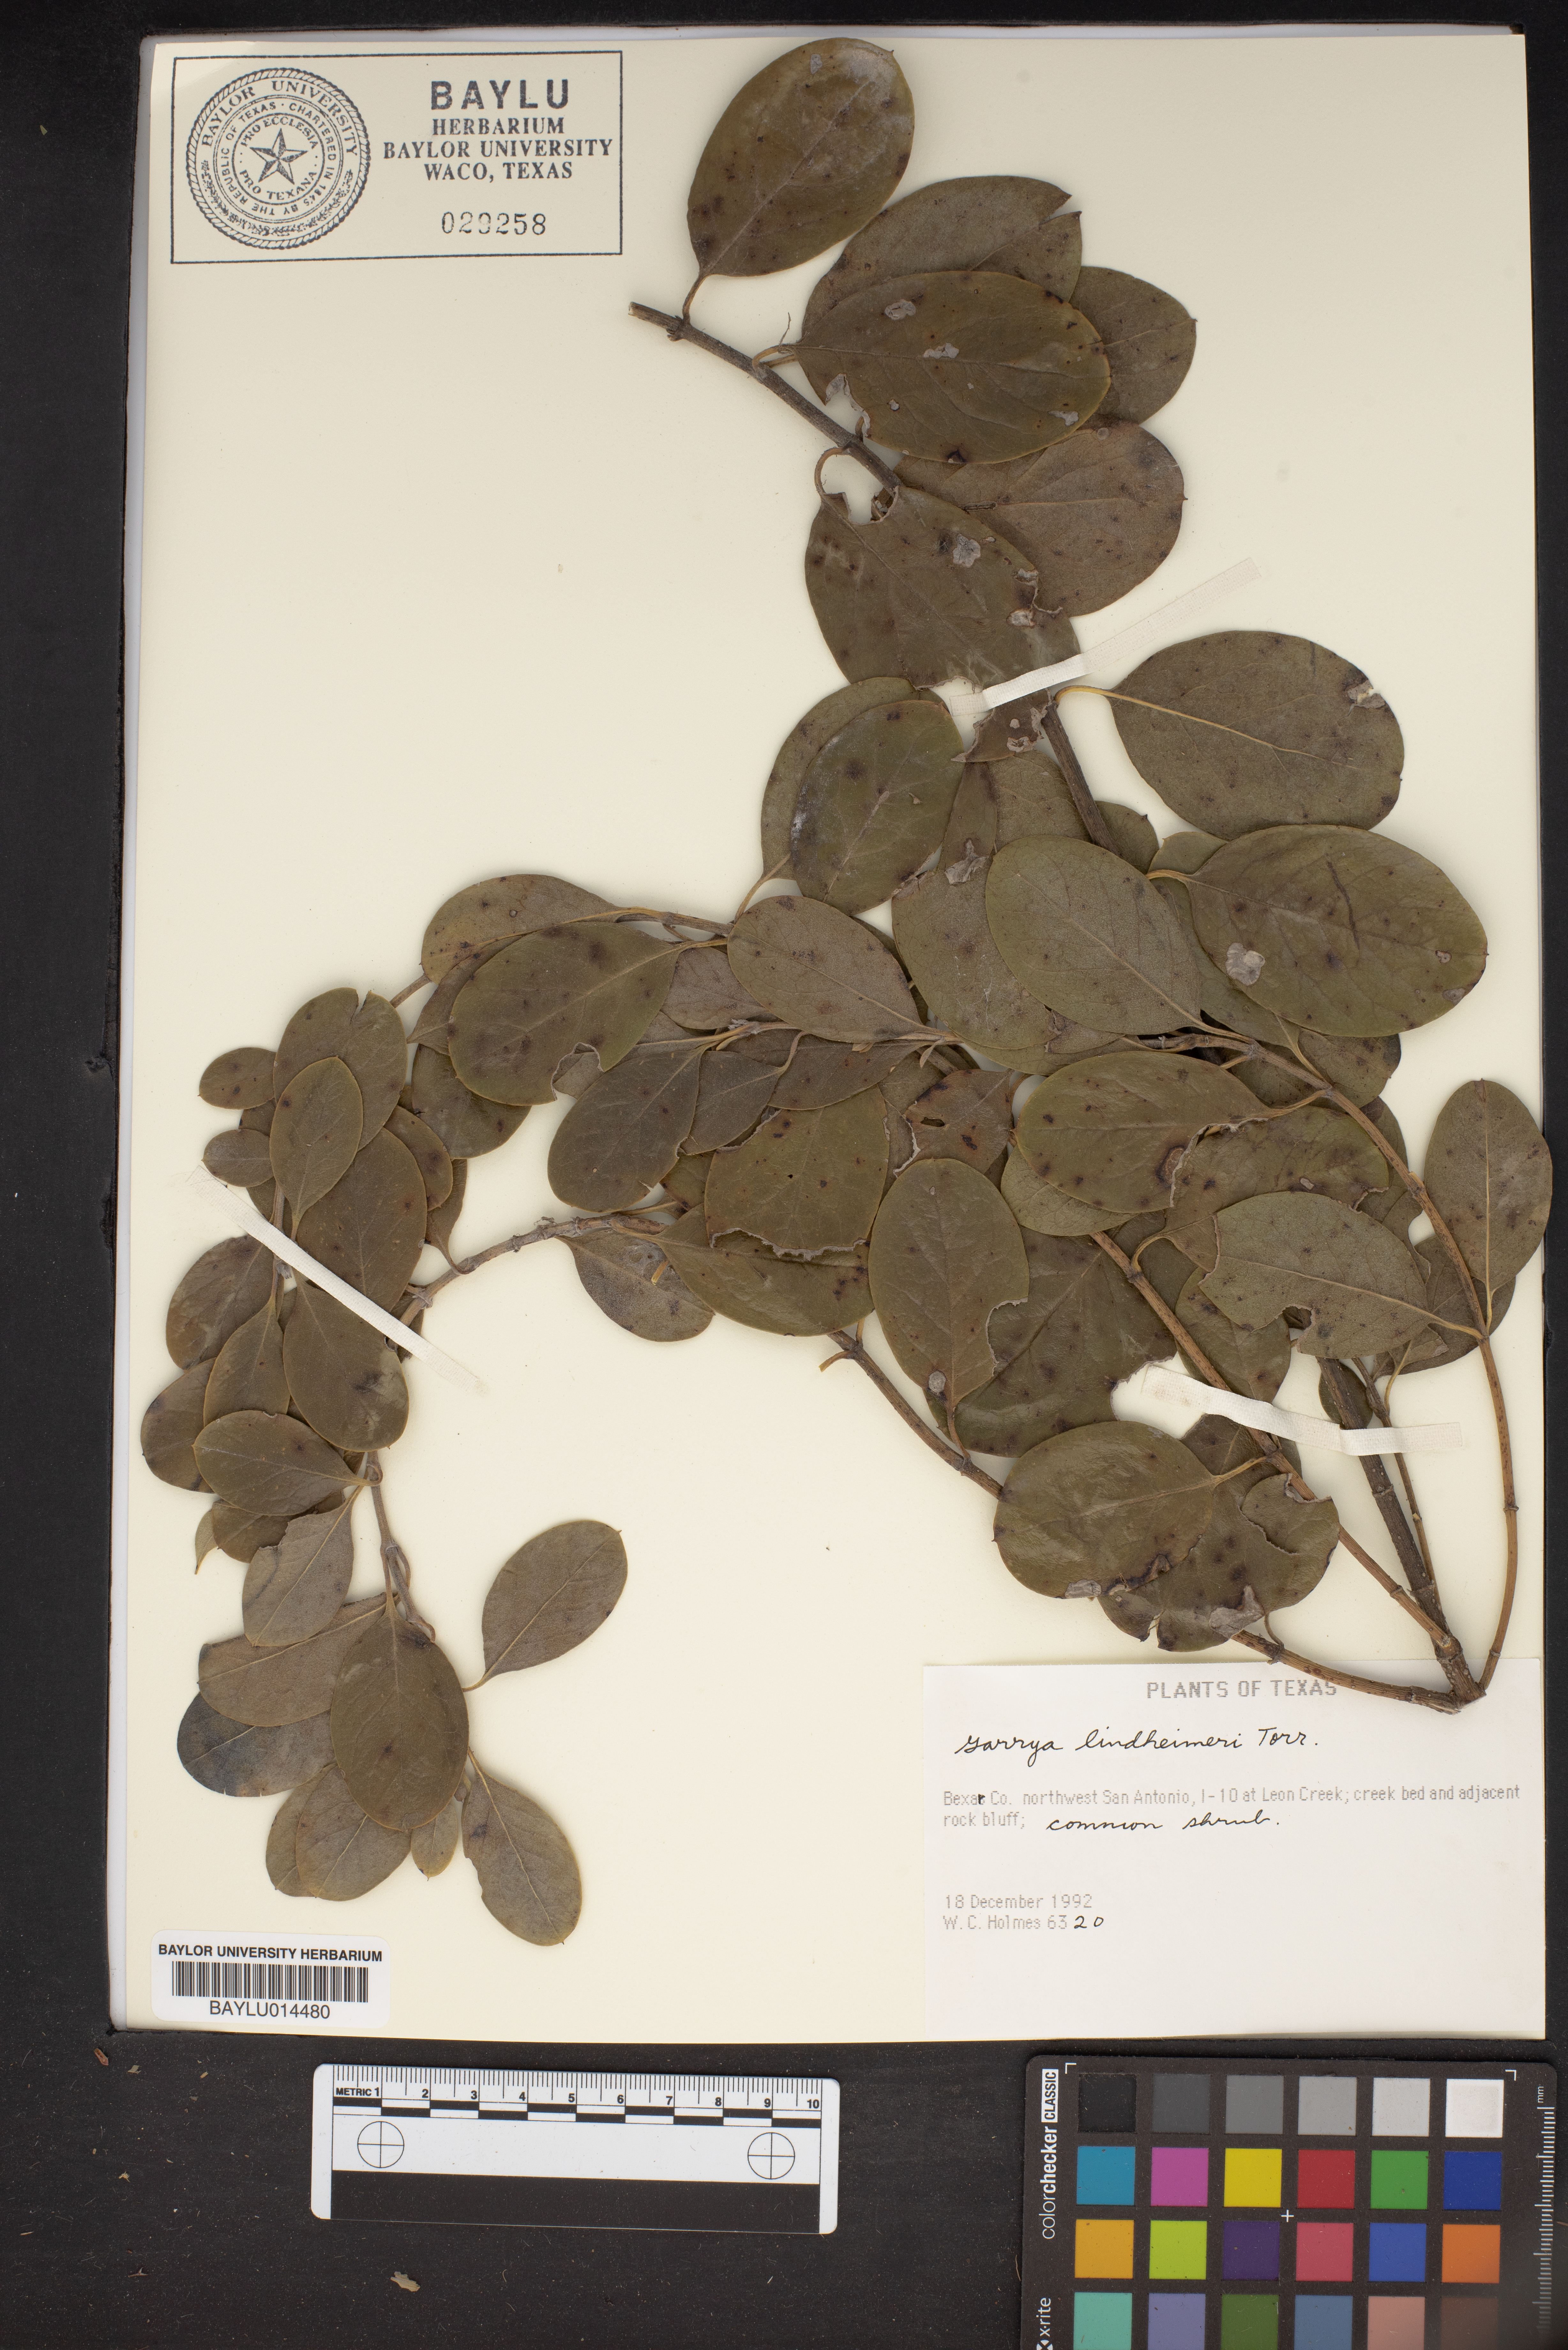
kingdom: Plantae
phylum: Tracheophyta
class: Magnoliopsida
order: Garryales
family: Garryaceae
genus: Garrya
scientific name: Garrya lindheimeri
